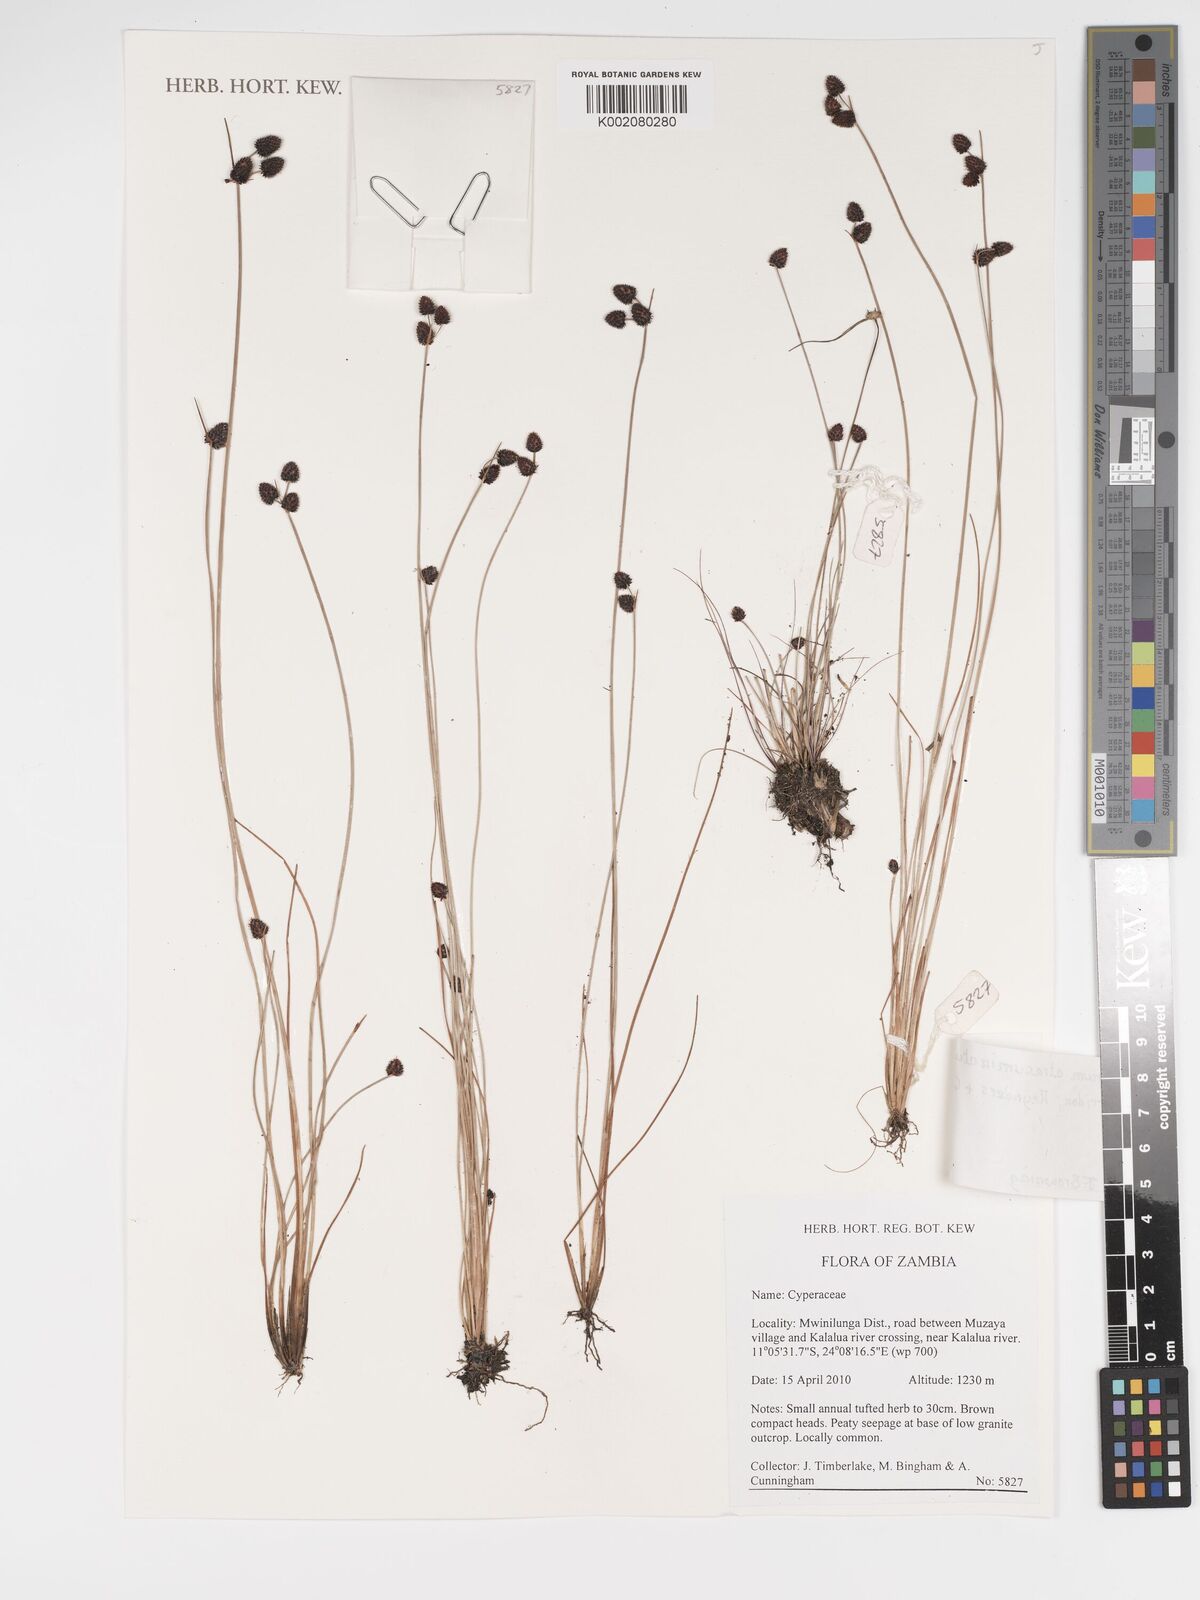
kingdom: Plantae
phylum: Tracheophyta
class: Liliopsida
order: Poales
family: Cyperaceae
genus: Bulbostylis
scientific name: Bulbostylis atracuminata
